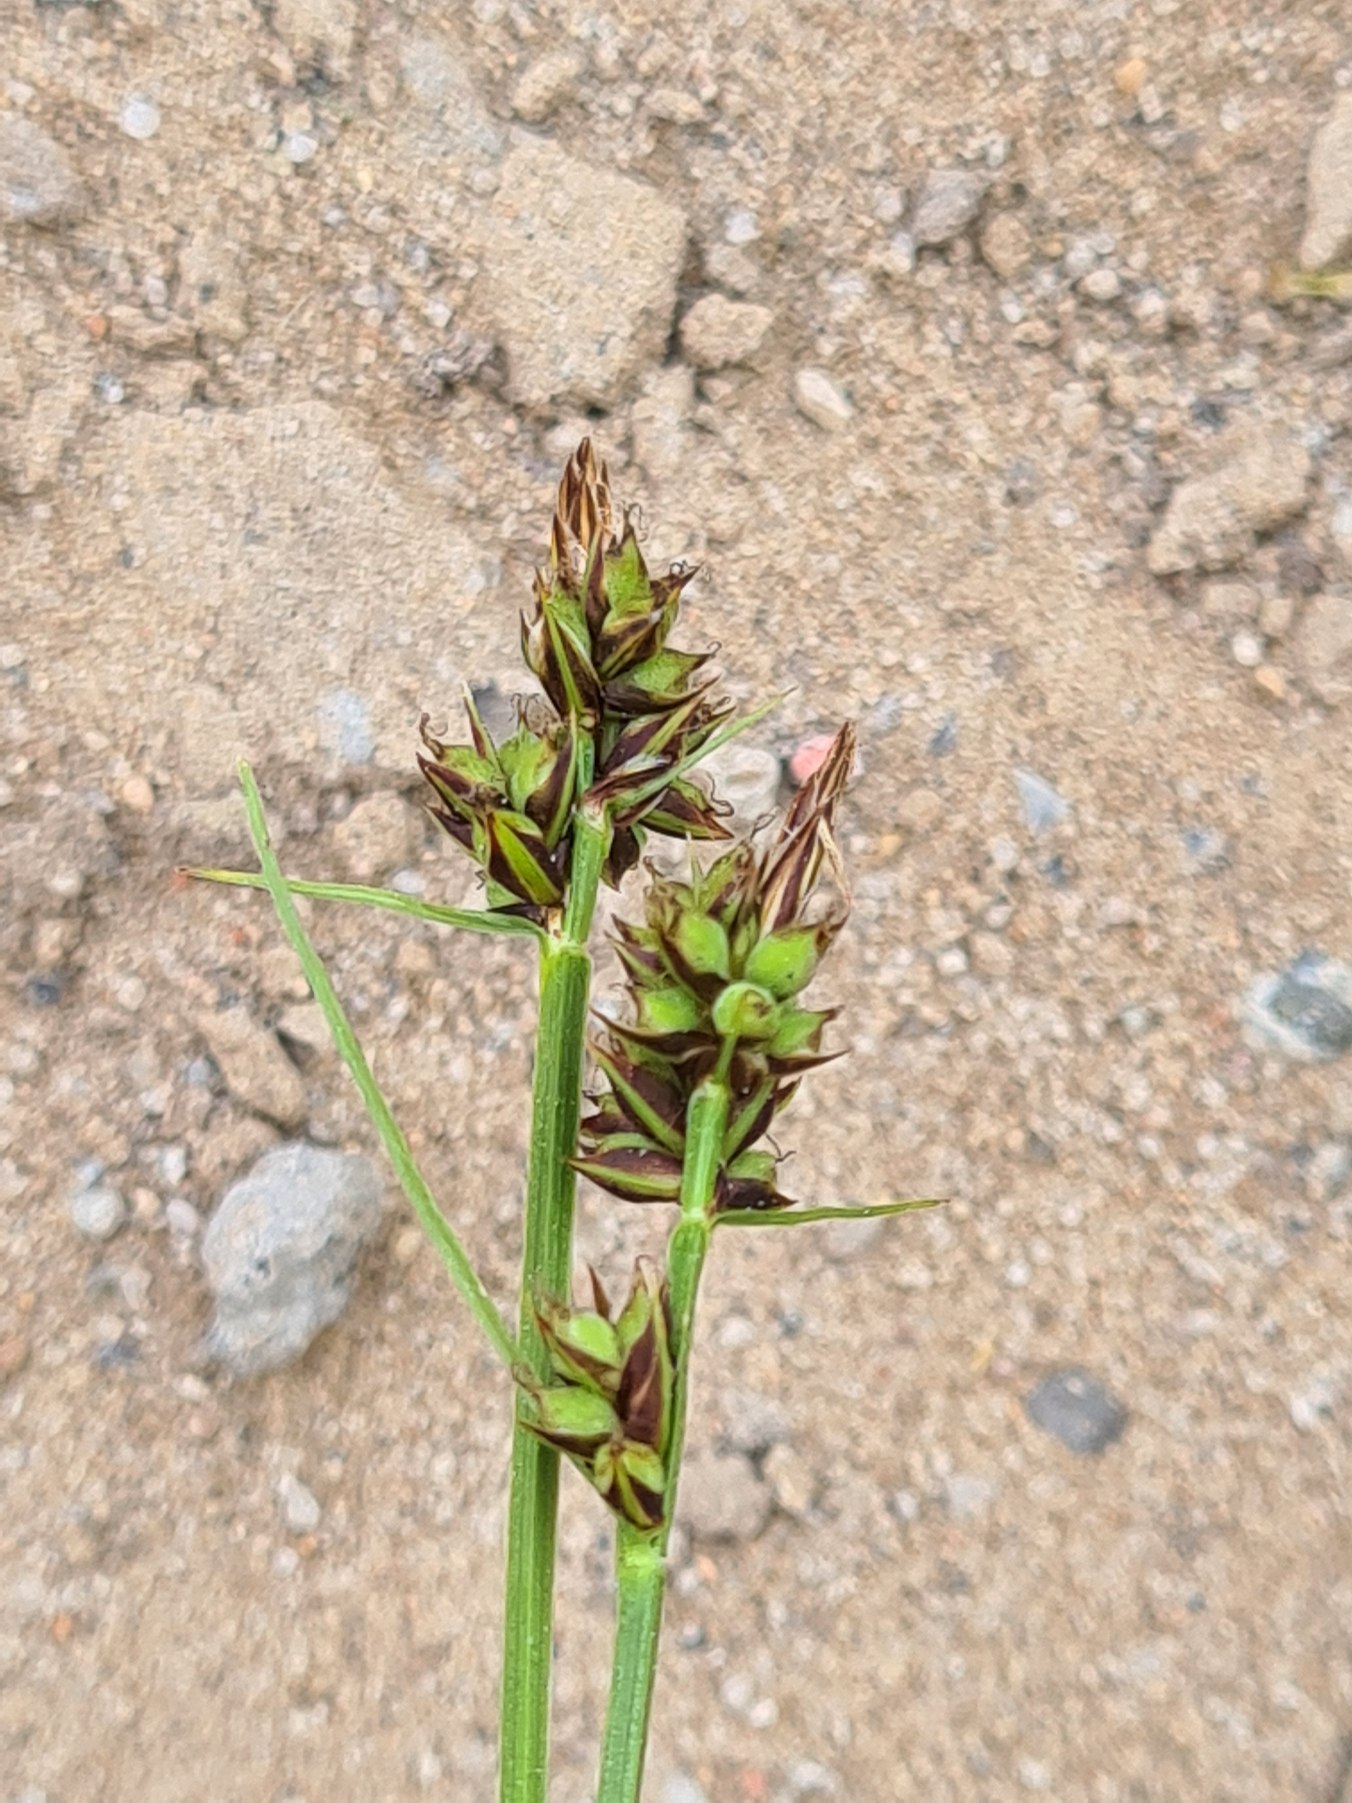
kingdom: Plantae
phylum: Tracheophyta
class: Liliopsida
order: Poales
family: Cyperaceae
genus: Carex
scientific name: Carex pilulifera
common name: Pille-star
